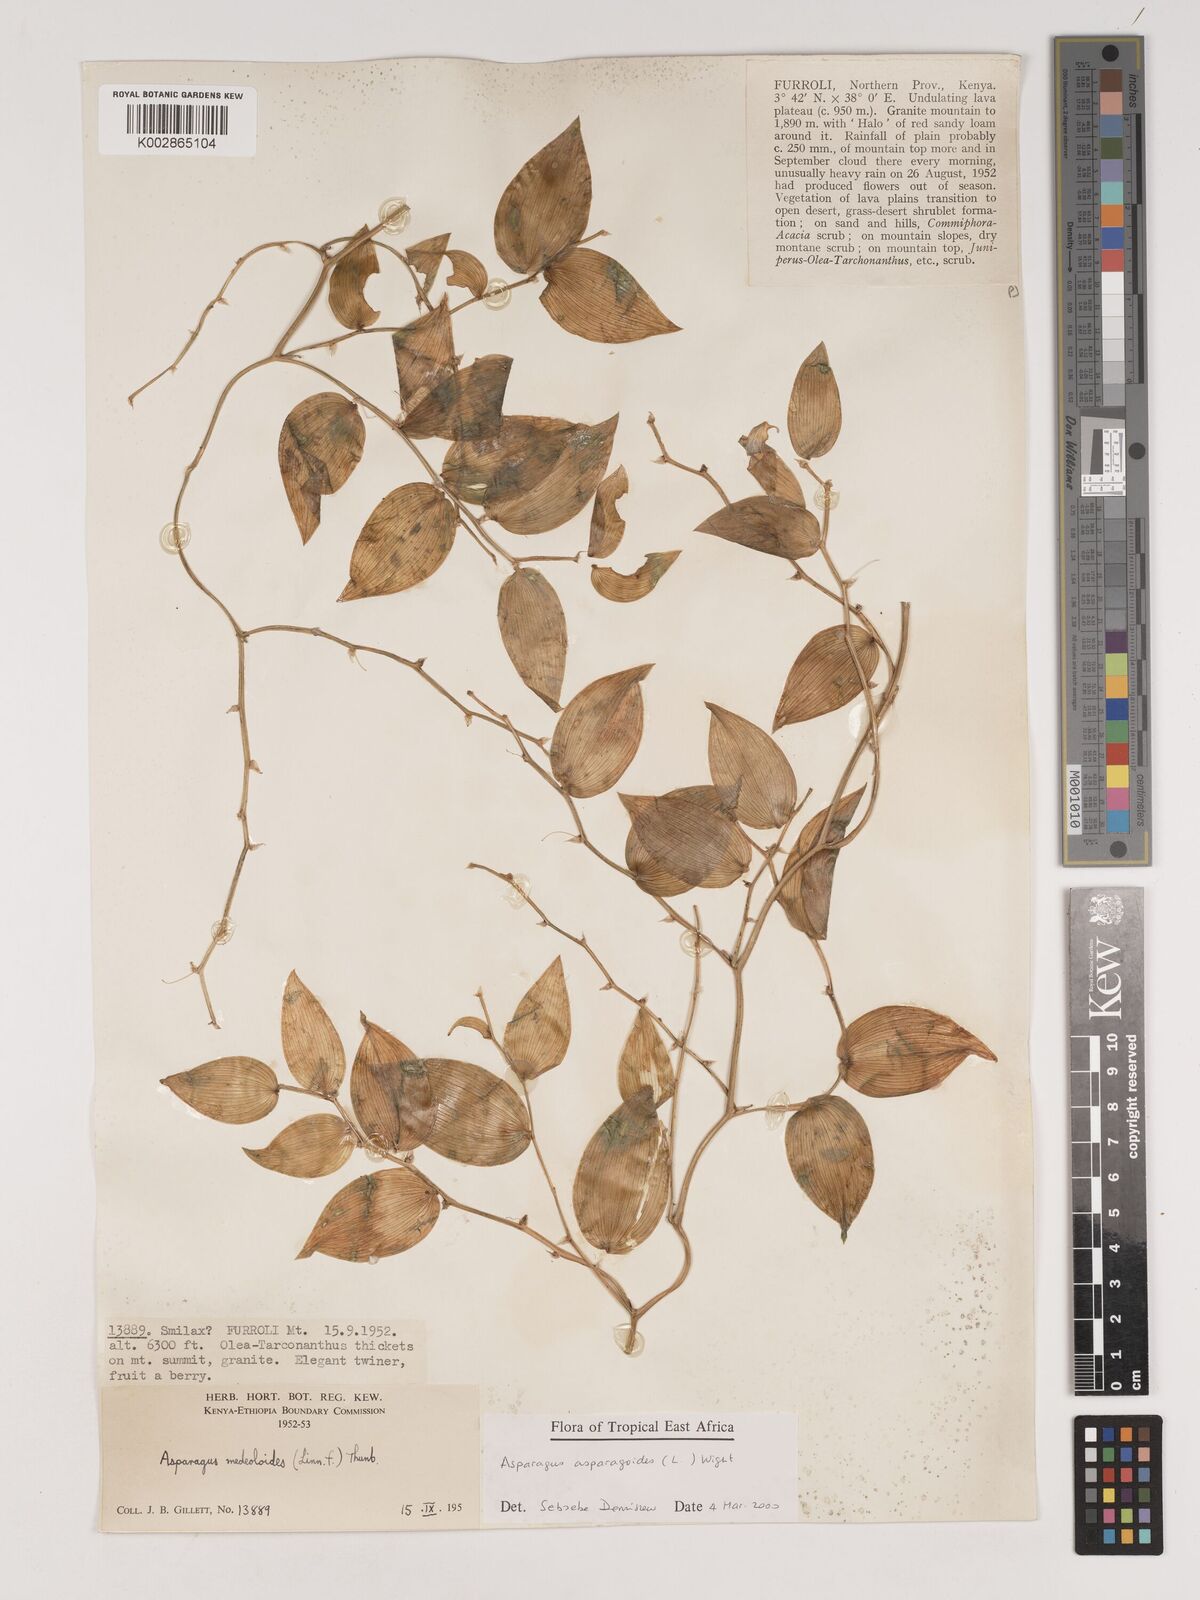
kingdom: Plantae
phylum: Tracheophyta
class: Liliopsida
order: Asparagales
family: Asparagaceae
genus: Asparagus
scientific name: Asparagus asparagoides
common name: African asparagus fern
